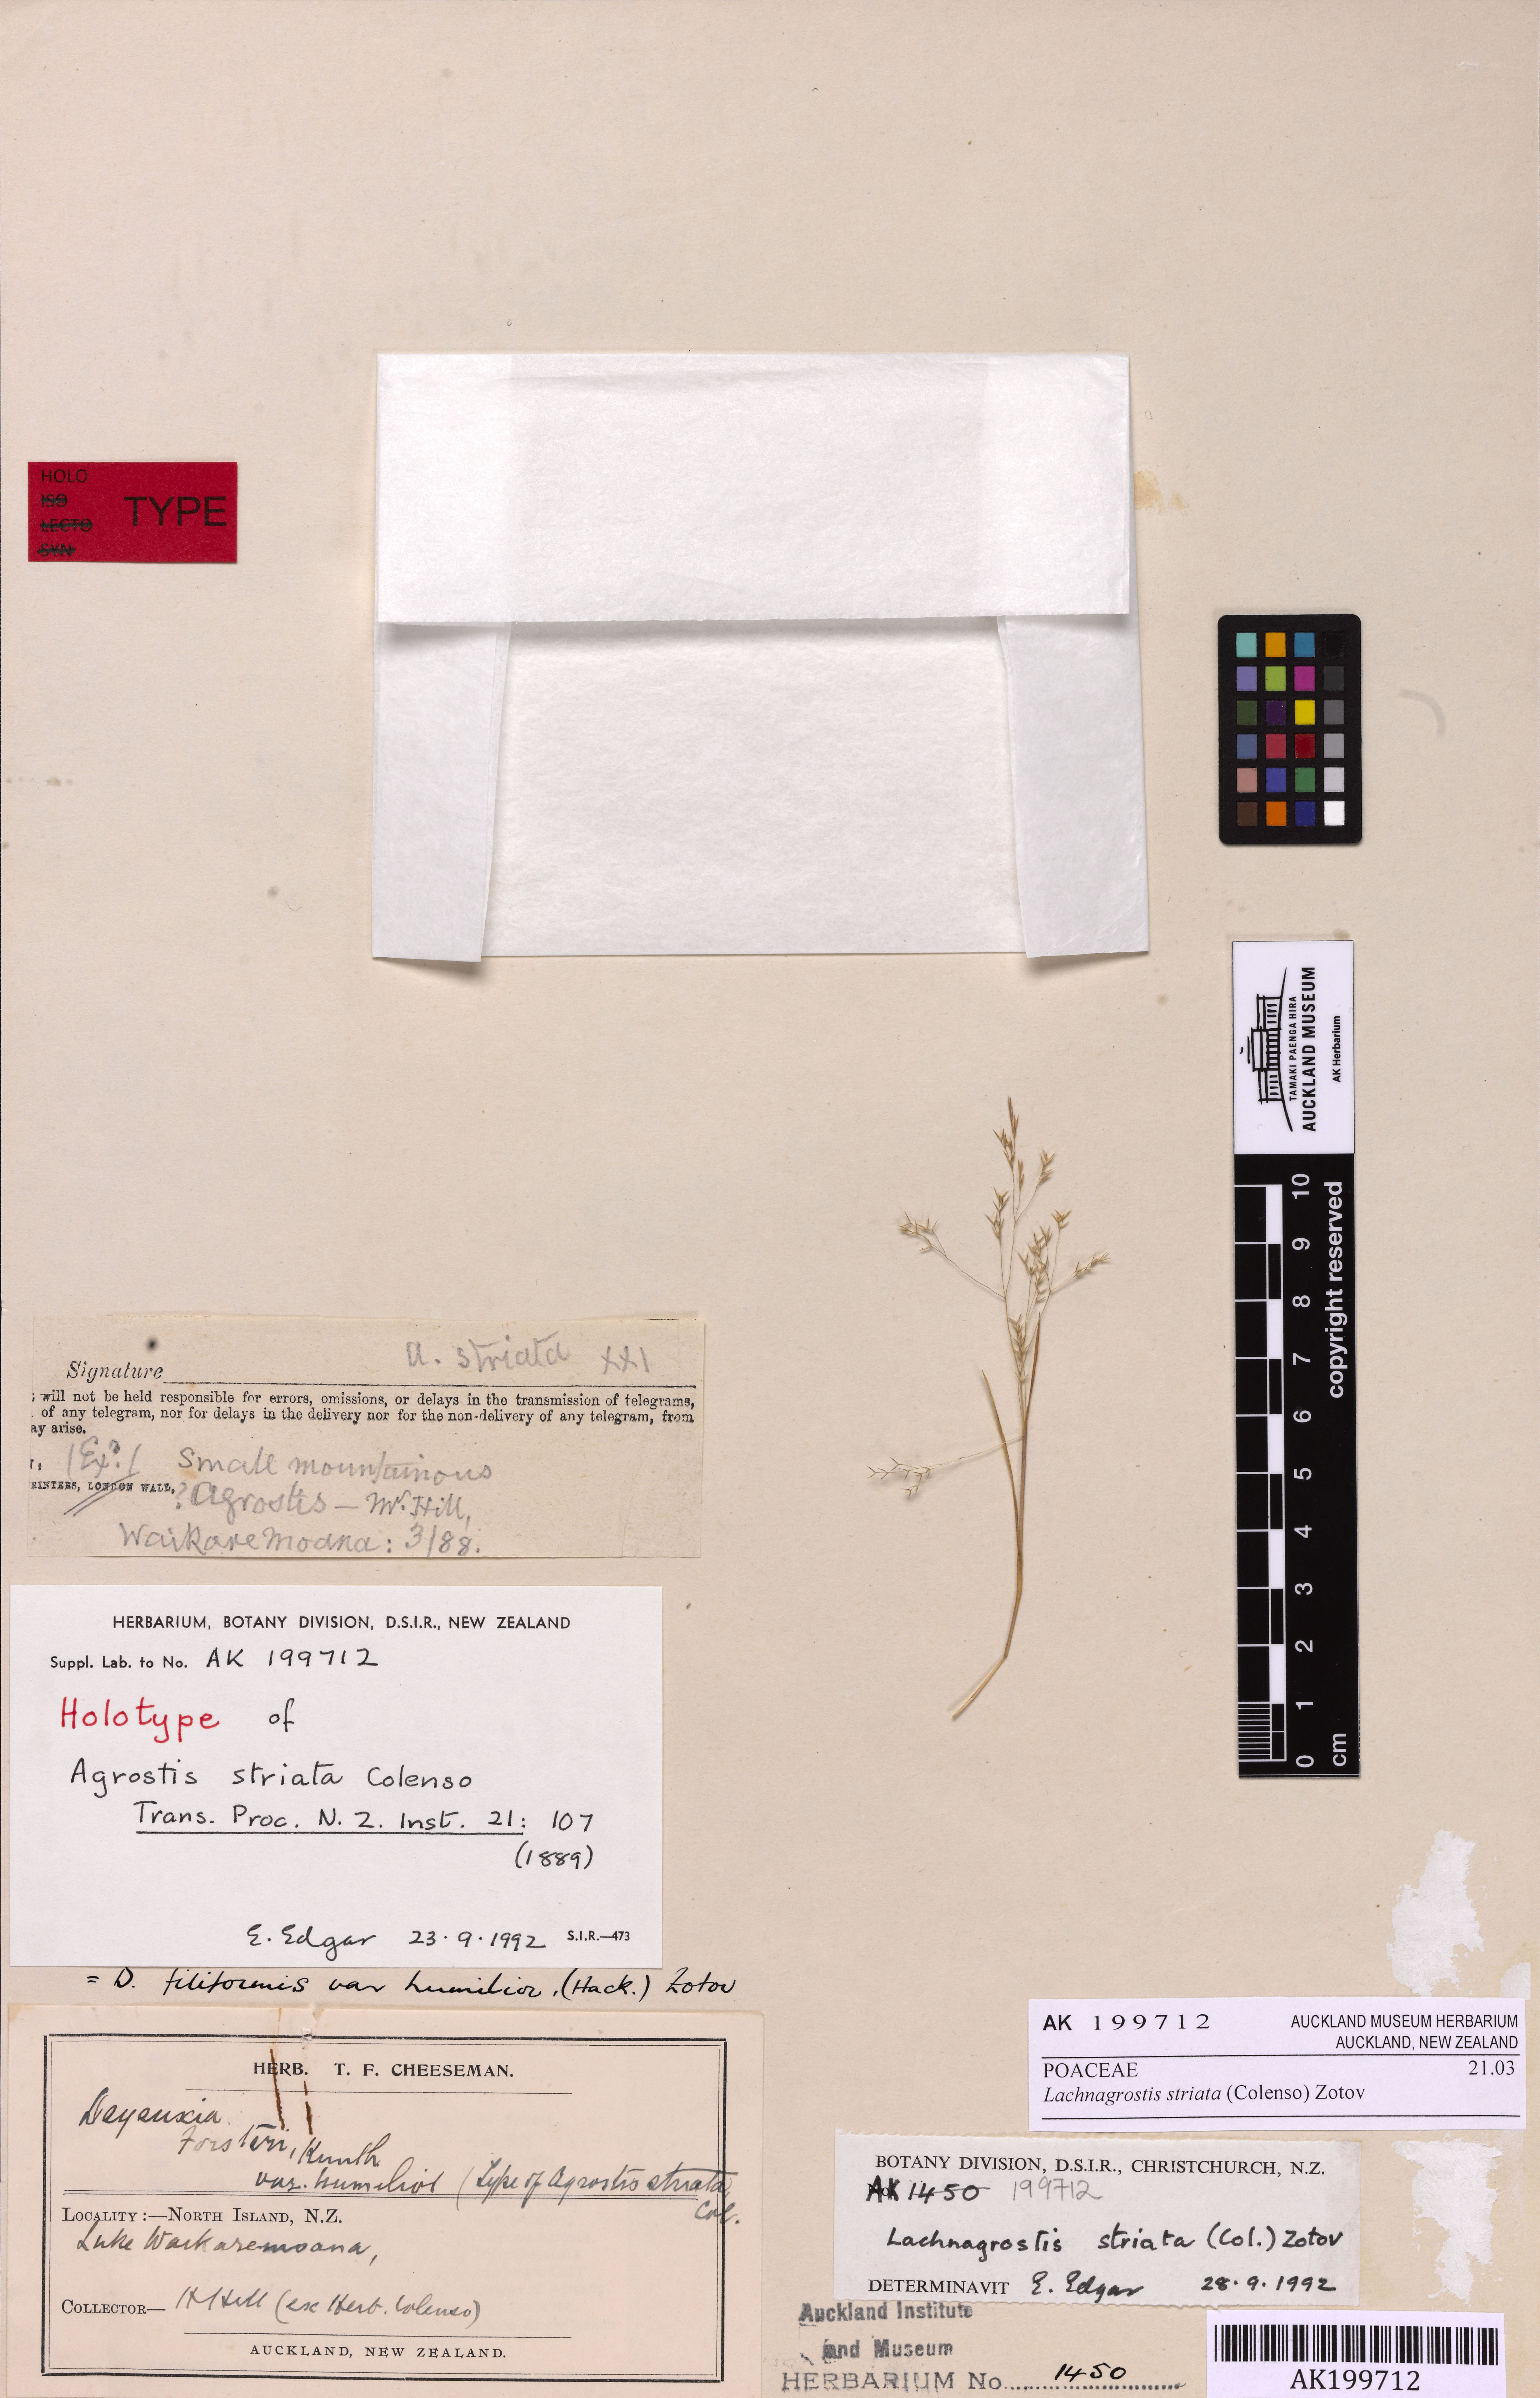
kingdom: Plantae
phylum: Tracheophyta
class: Liliopsida
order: Poales
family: Poaceae
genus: Lachnagrostis
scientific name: Lachnagrostis striata
